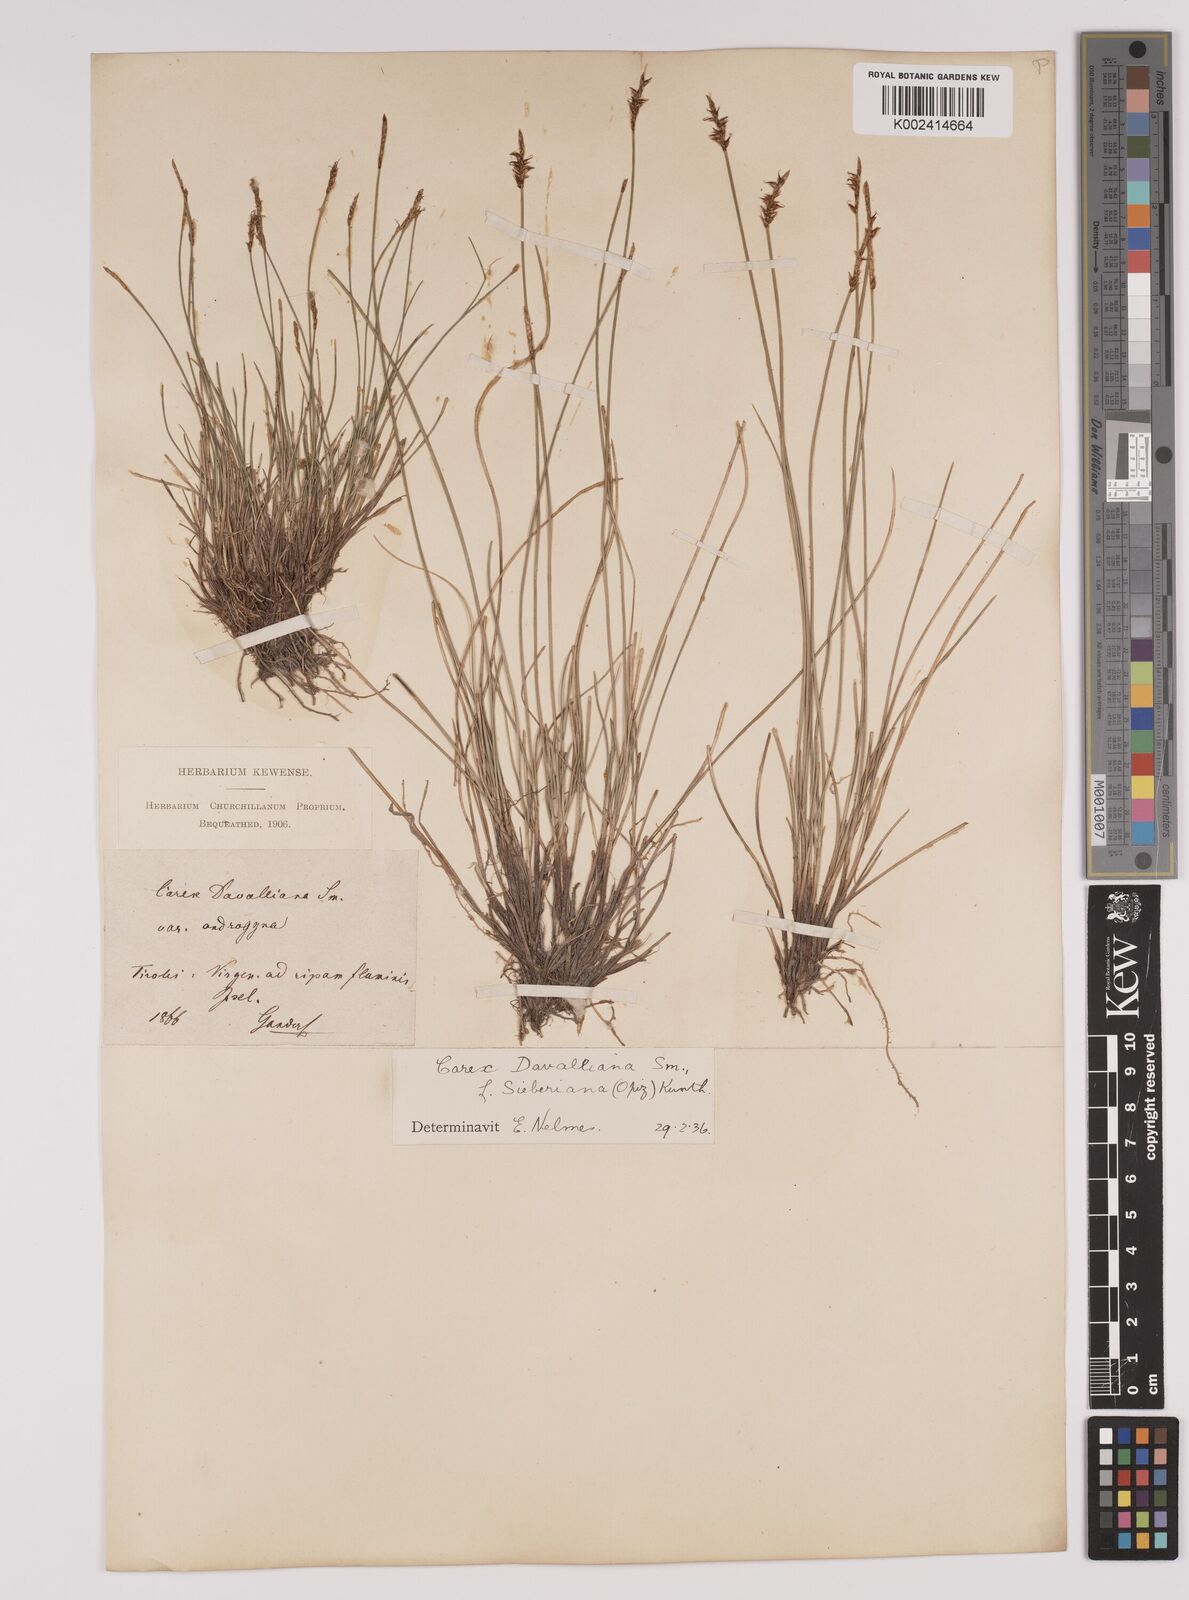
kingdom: Plantae
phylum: Tracheophyta
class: Liliopsida
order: Poales
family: Cyperaceae
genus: Carex
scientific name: Carex davalliana
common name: Davall's sedge
